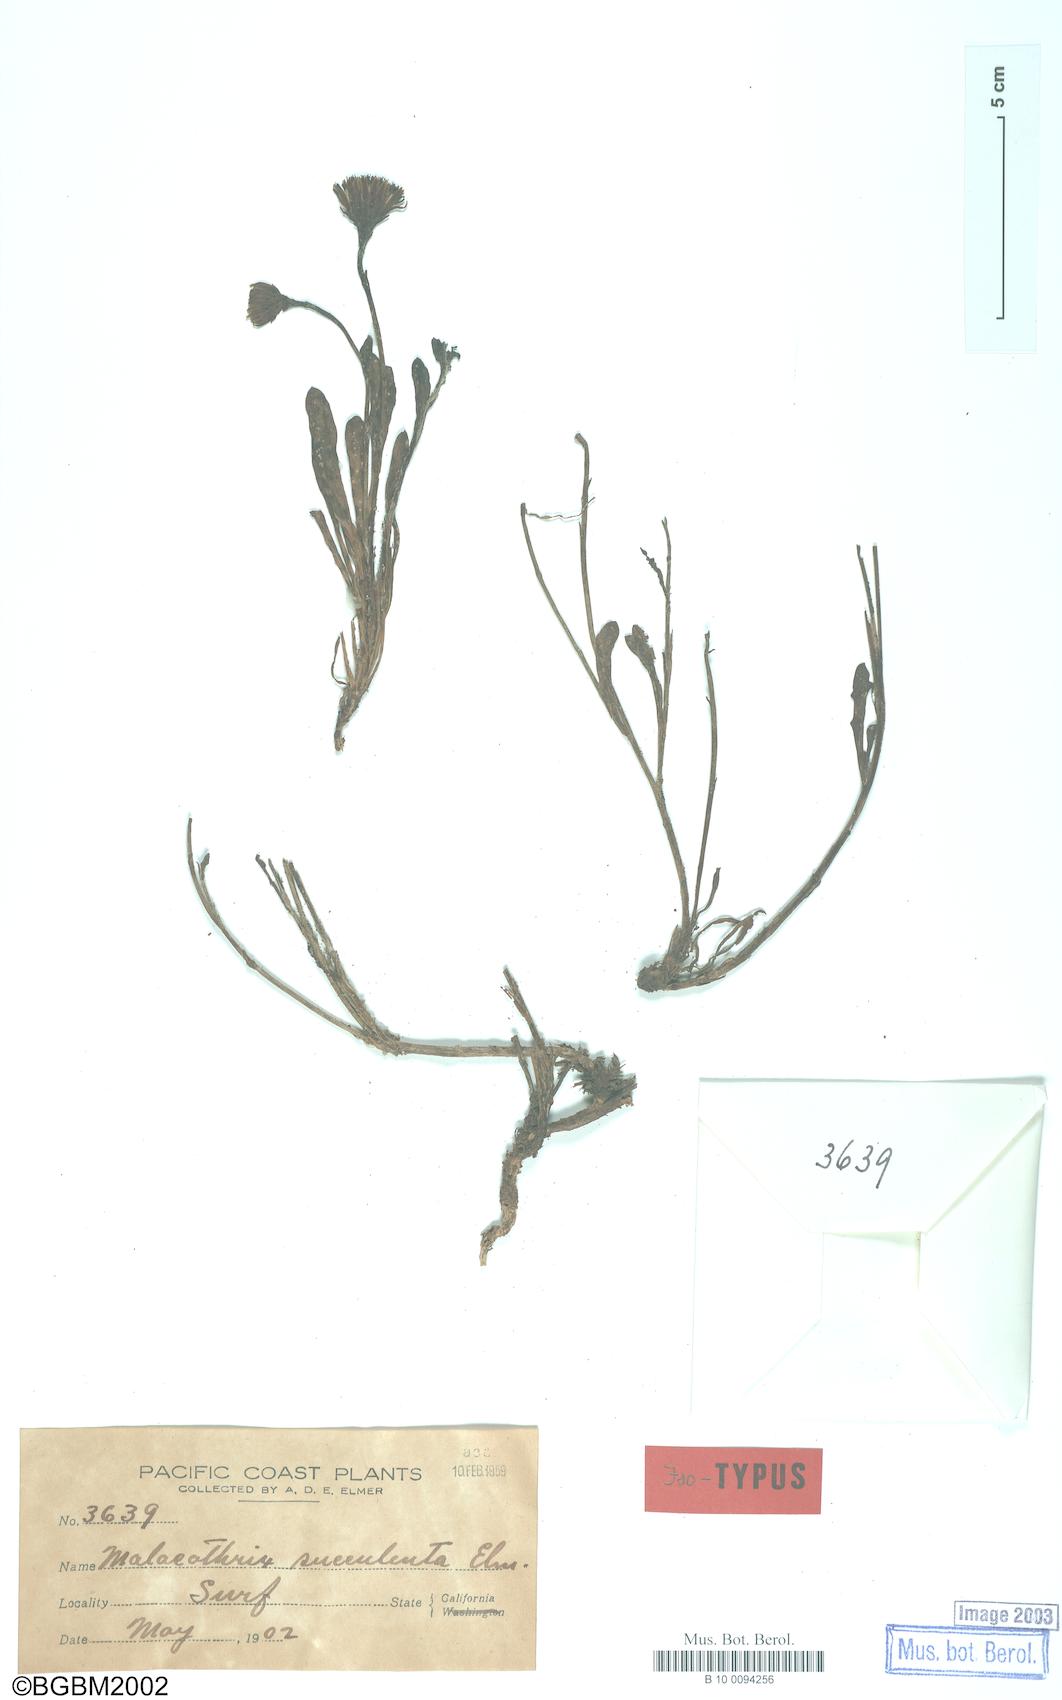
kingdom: Plantae
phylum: Tracheophyta
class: Magnoliopsida
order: Asterales
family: Asteraceae
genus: Malacothrix
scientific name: Malacothrix incana
